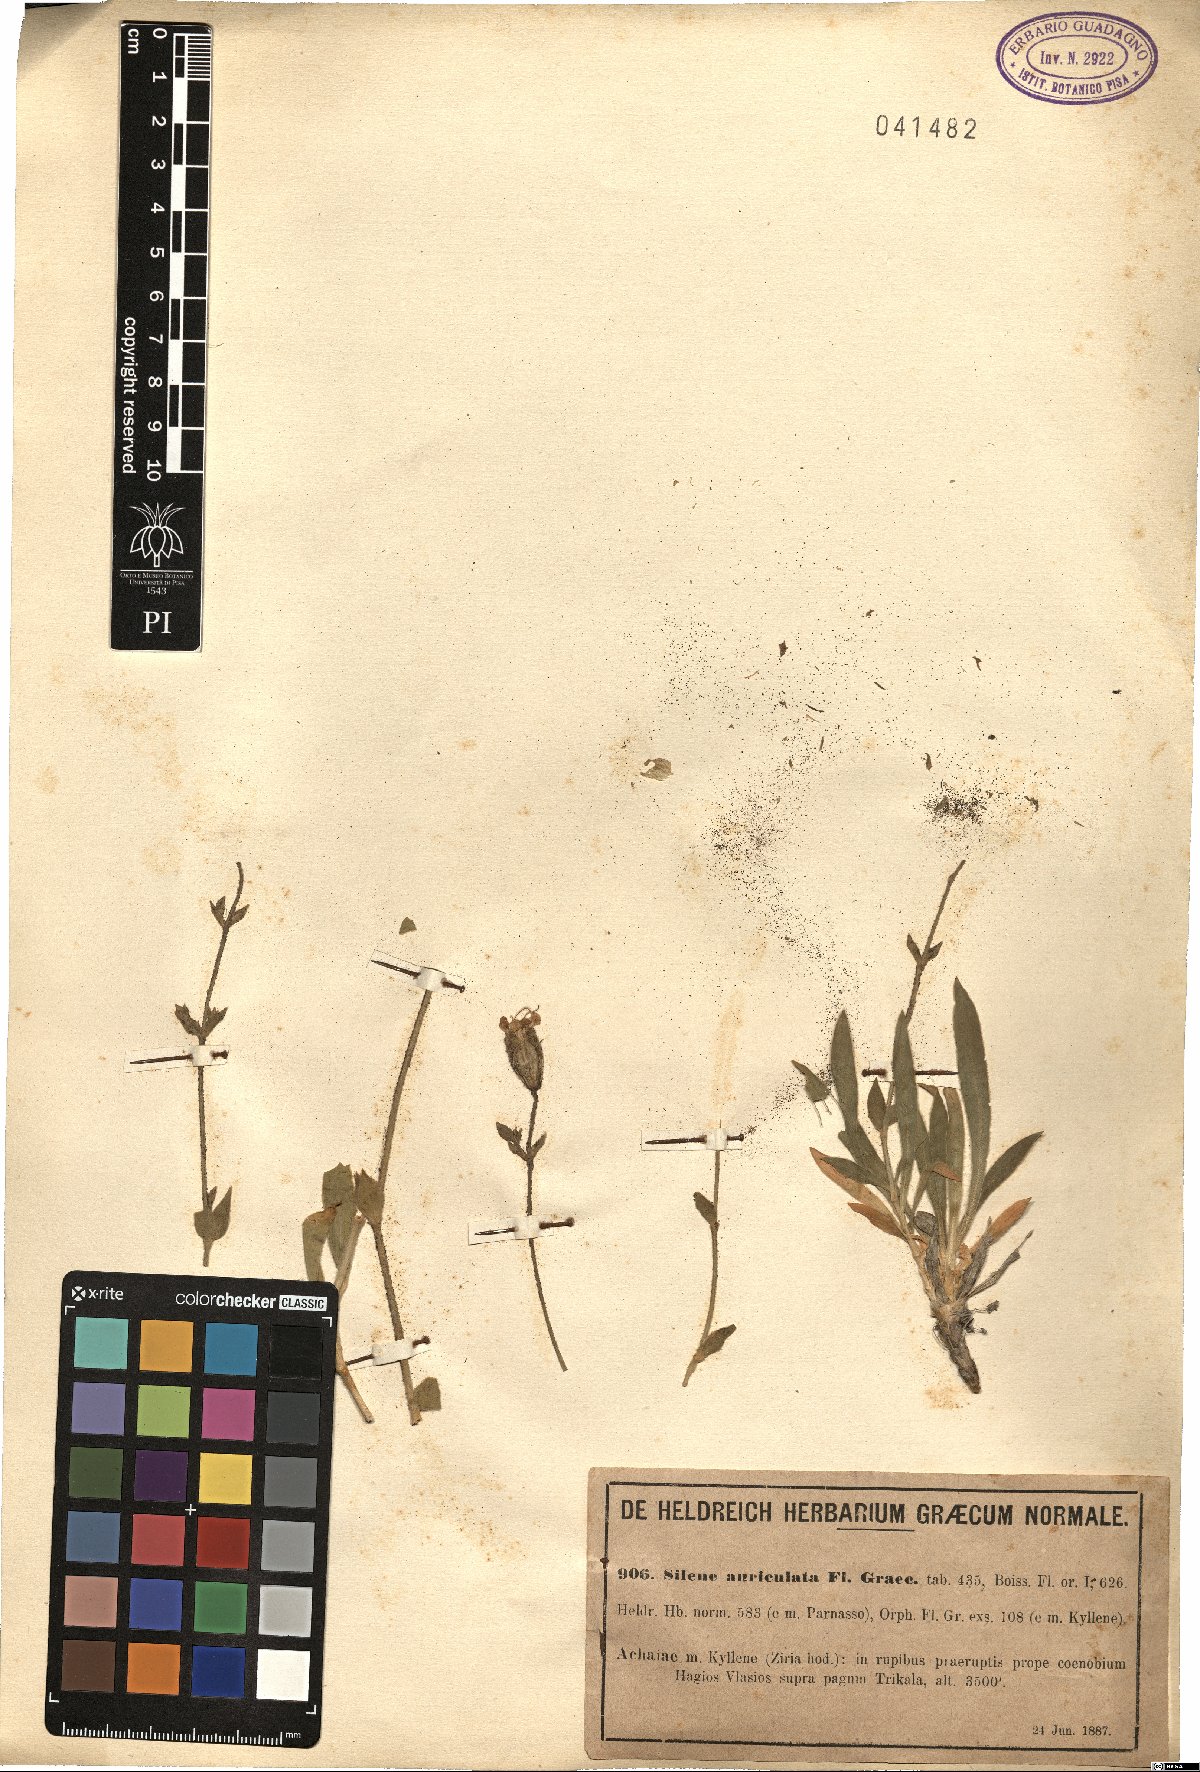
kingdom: Plantae
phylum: Tracheophyta
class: Magnoliopsida
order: Caryophyllales
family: Caryophyllaceae
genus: Silene
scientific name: Silene auriculata
